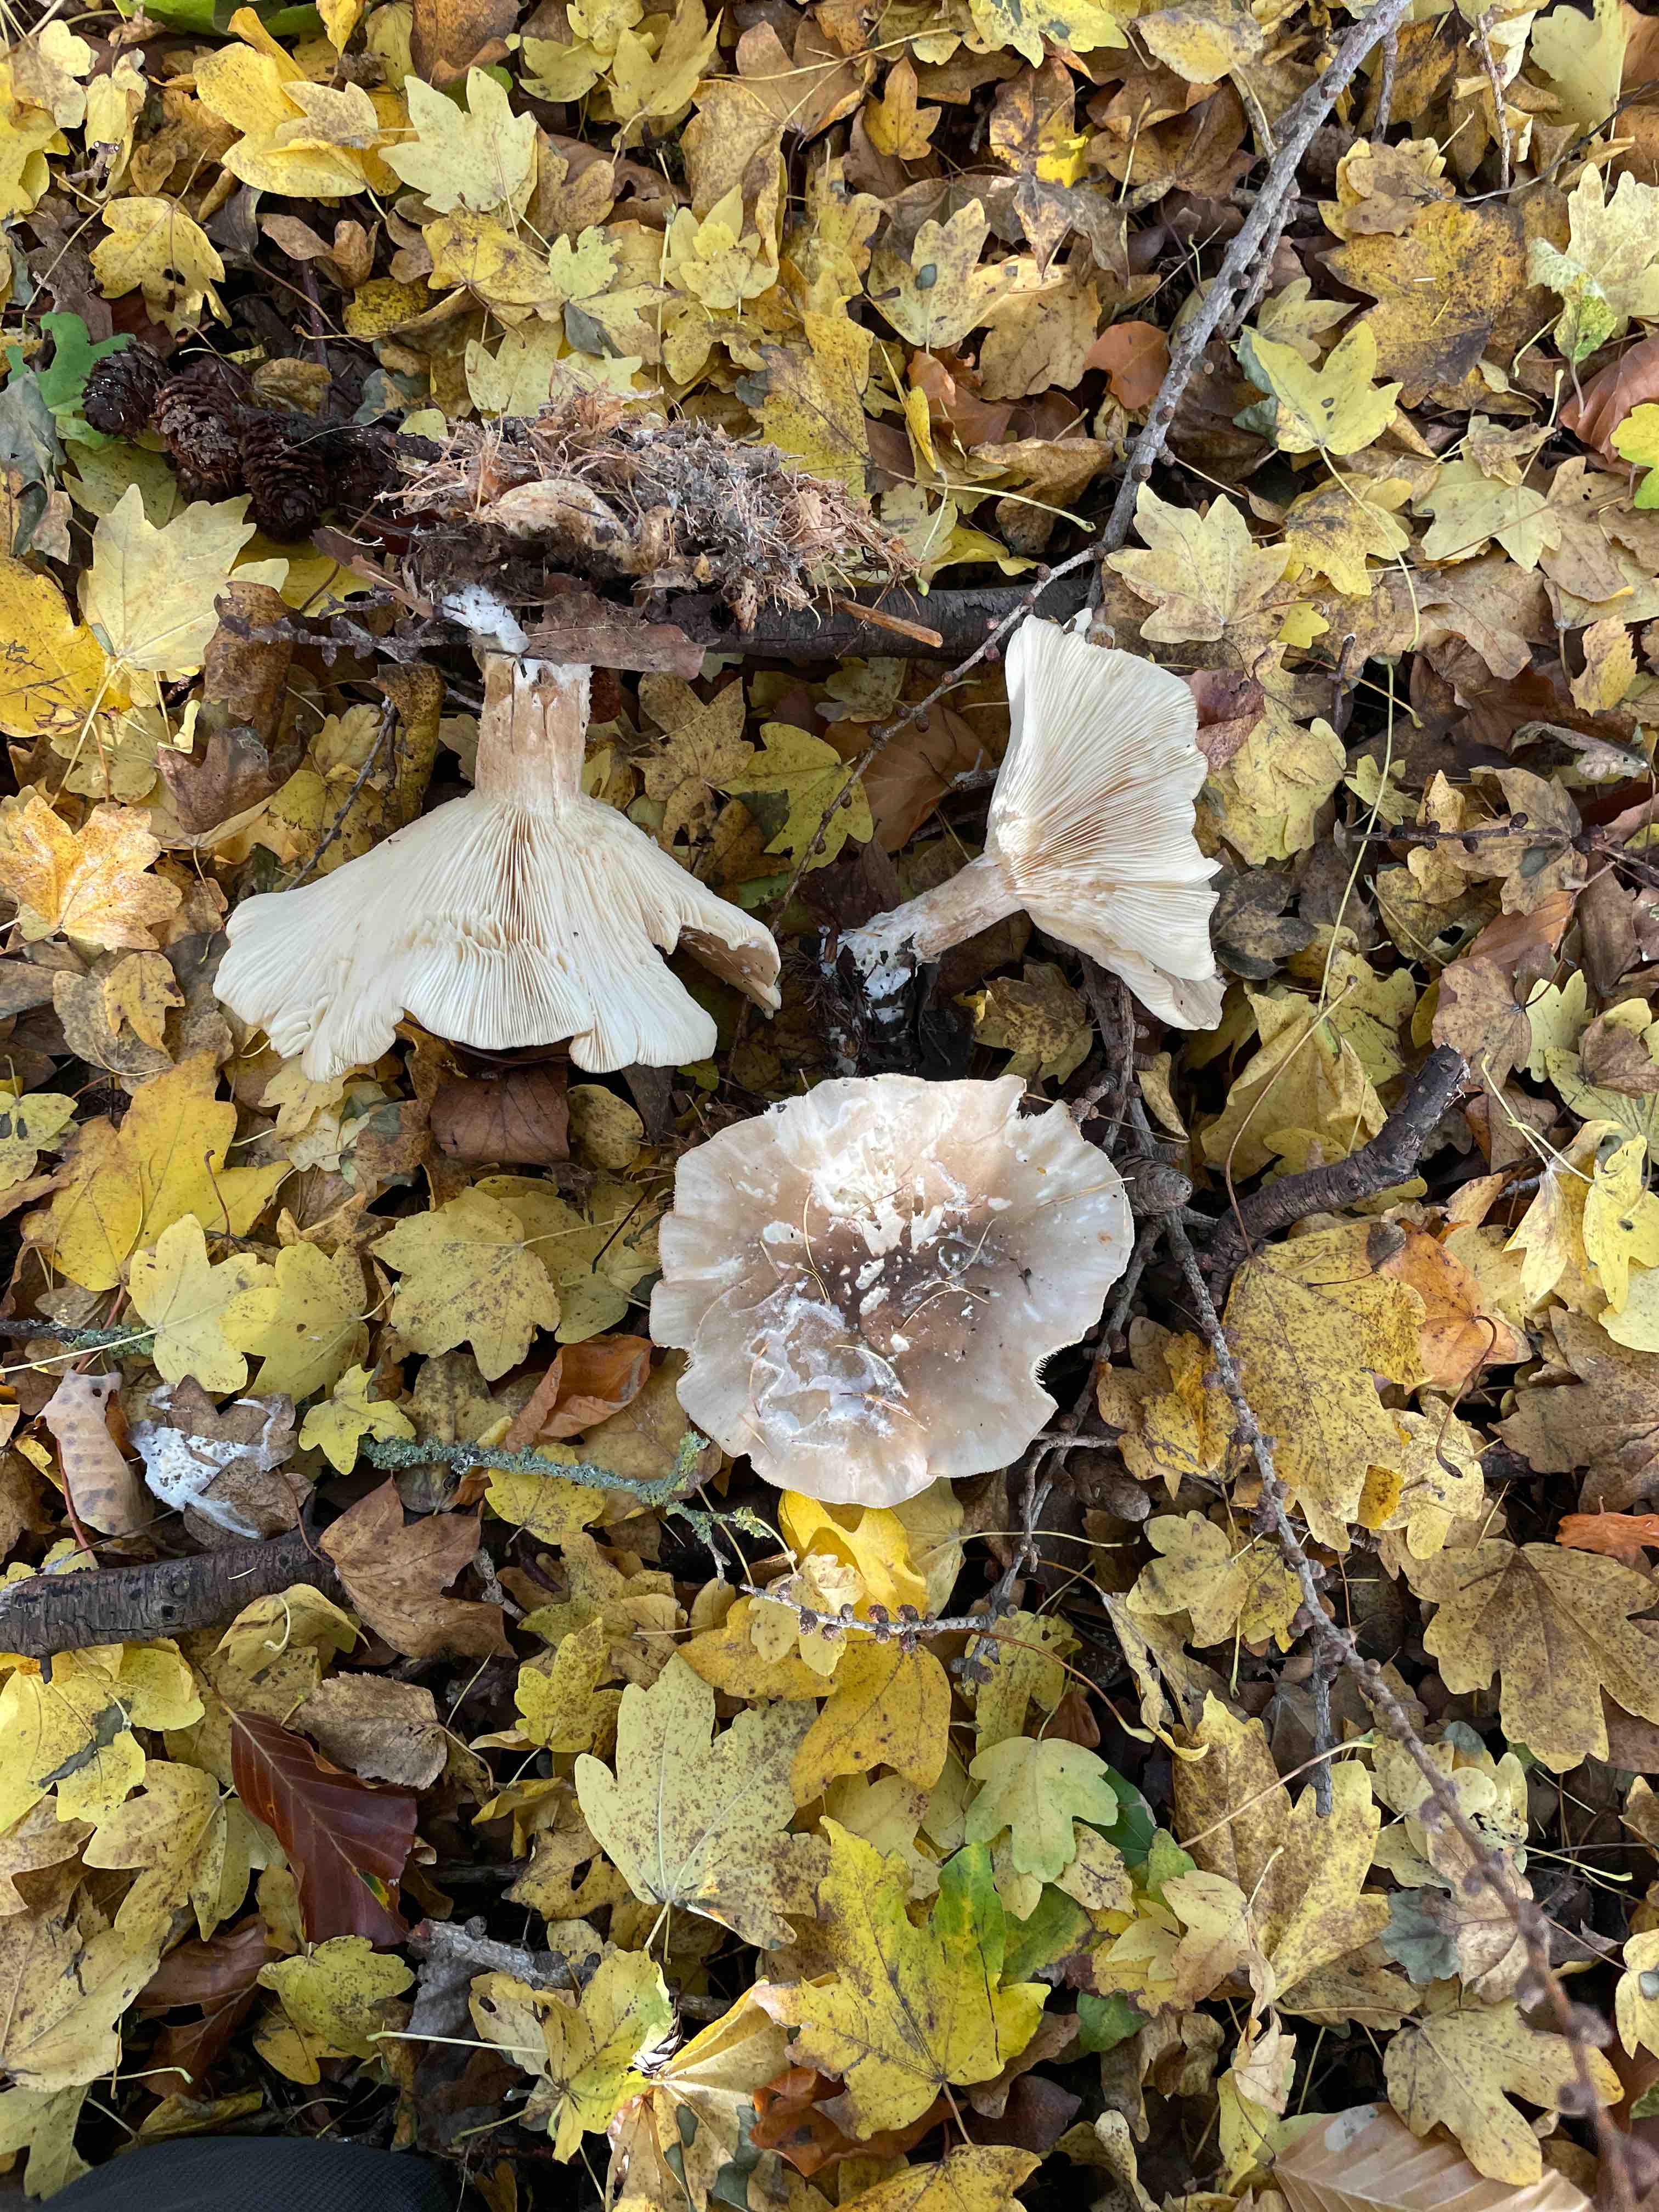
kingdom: Fungi
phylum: Basidiomycota
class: Agaricomycetes
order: Agaricales
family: Tricholomataceae
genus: Clitocybe
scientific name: Clitocybe nebularis
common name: tåge-tragthat
